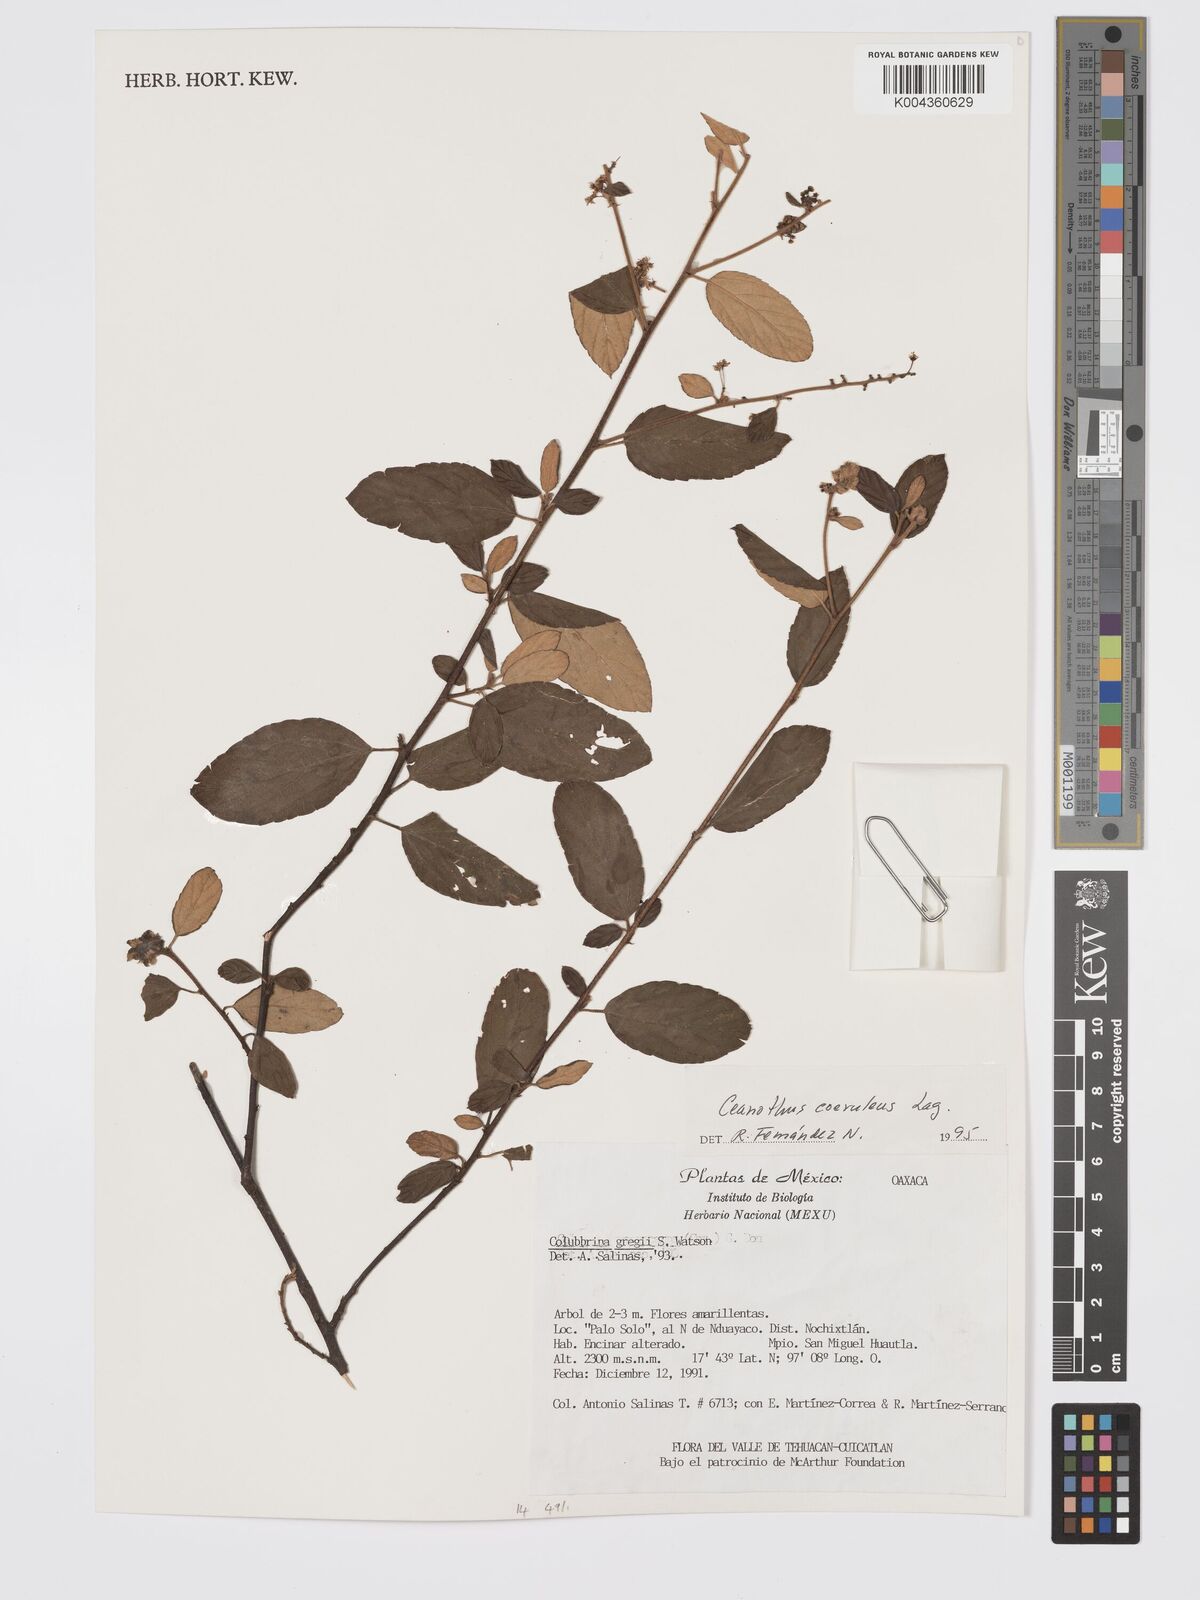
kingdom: Plantae
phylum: Tracheophyta
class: Magnoliopsida
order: Rosales
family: Rhamnaceae
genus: Ceanothus
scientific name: Ceanothus caeruleus
